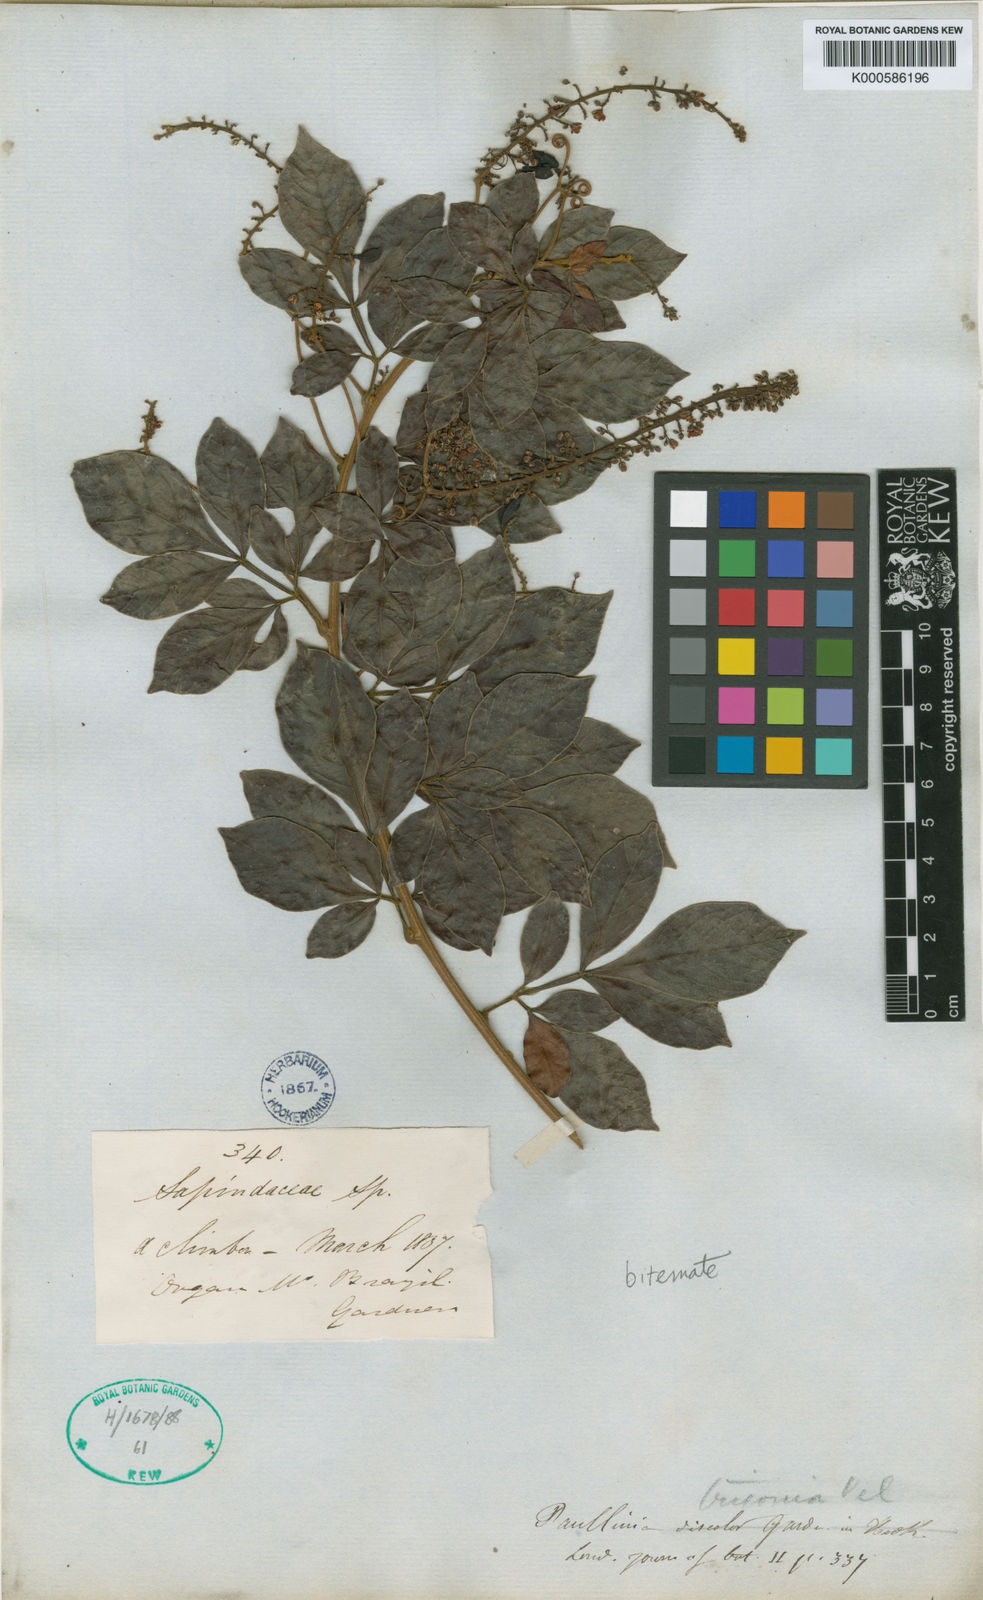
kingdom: Plantae
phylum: Tracheophyta
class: Magnoliopsida
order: Sapindales
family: Sapindaceae
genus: Paullinia
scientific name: Paullinia trigonia
